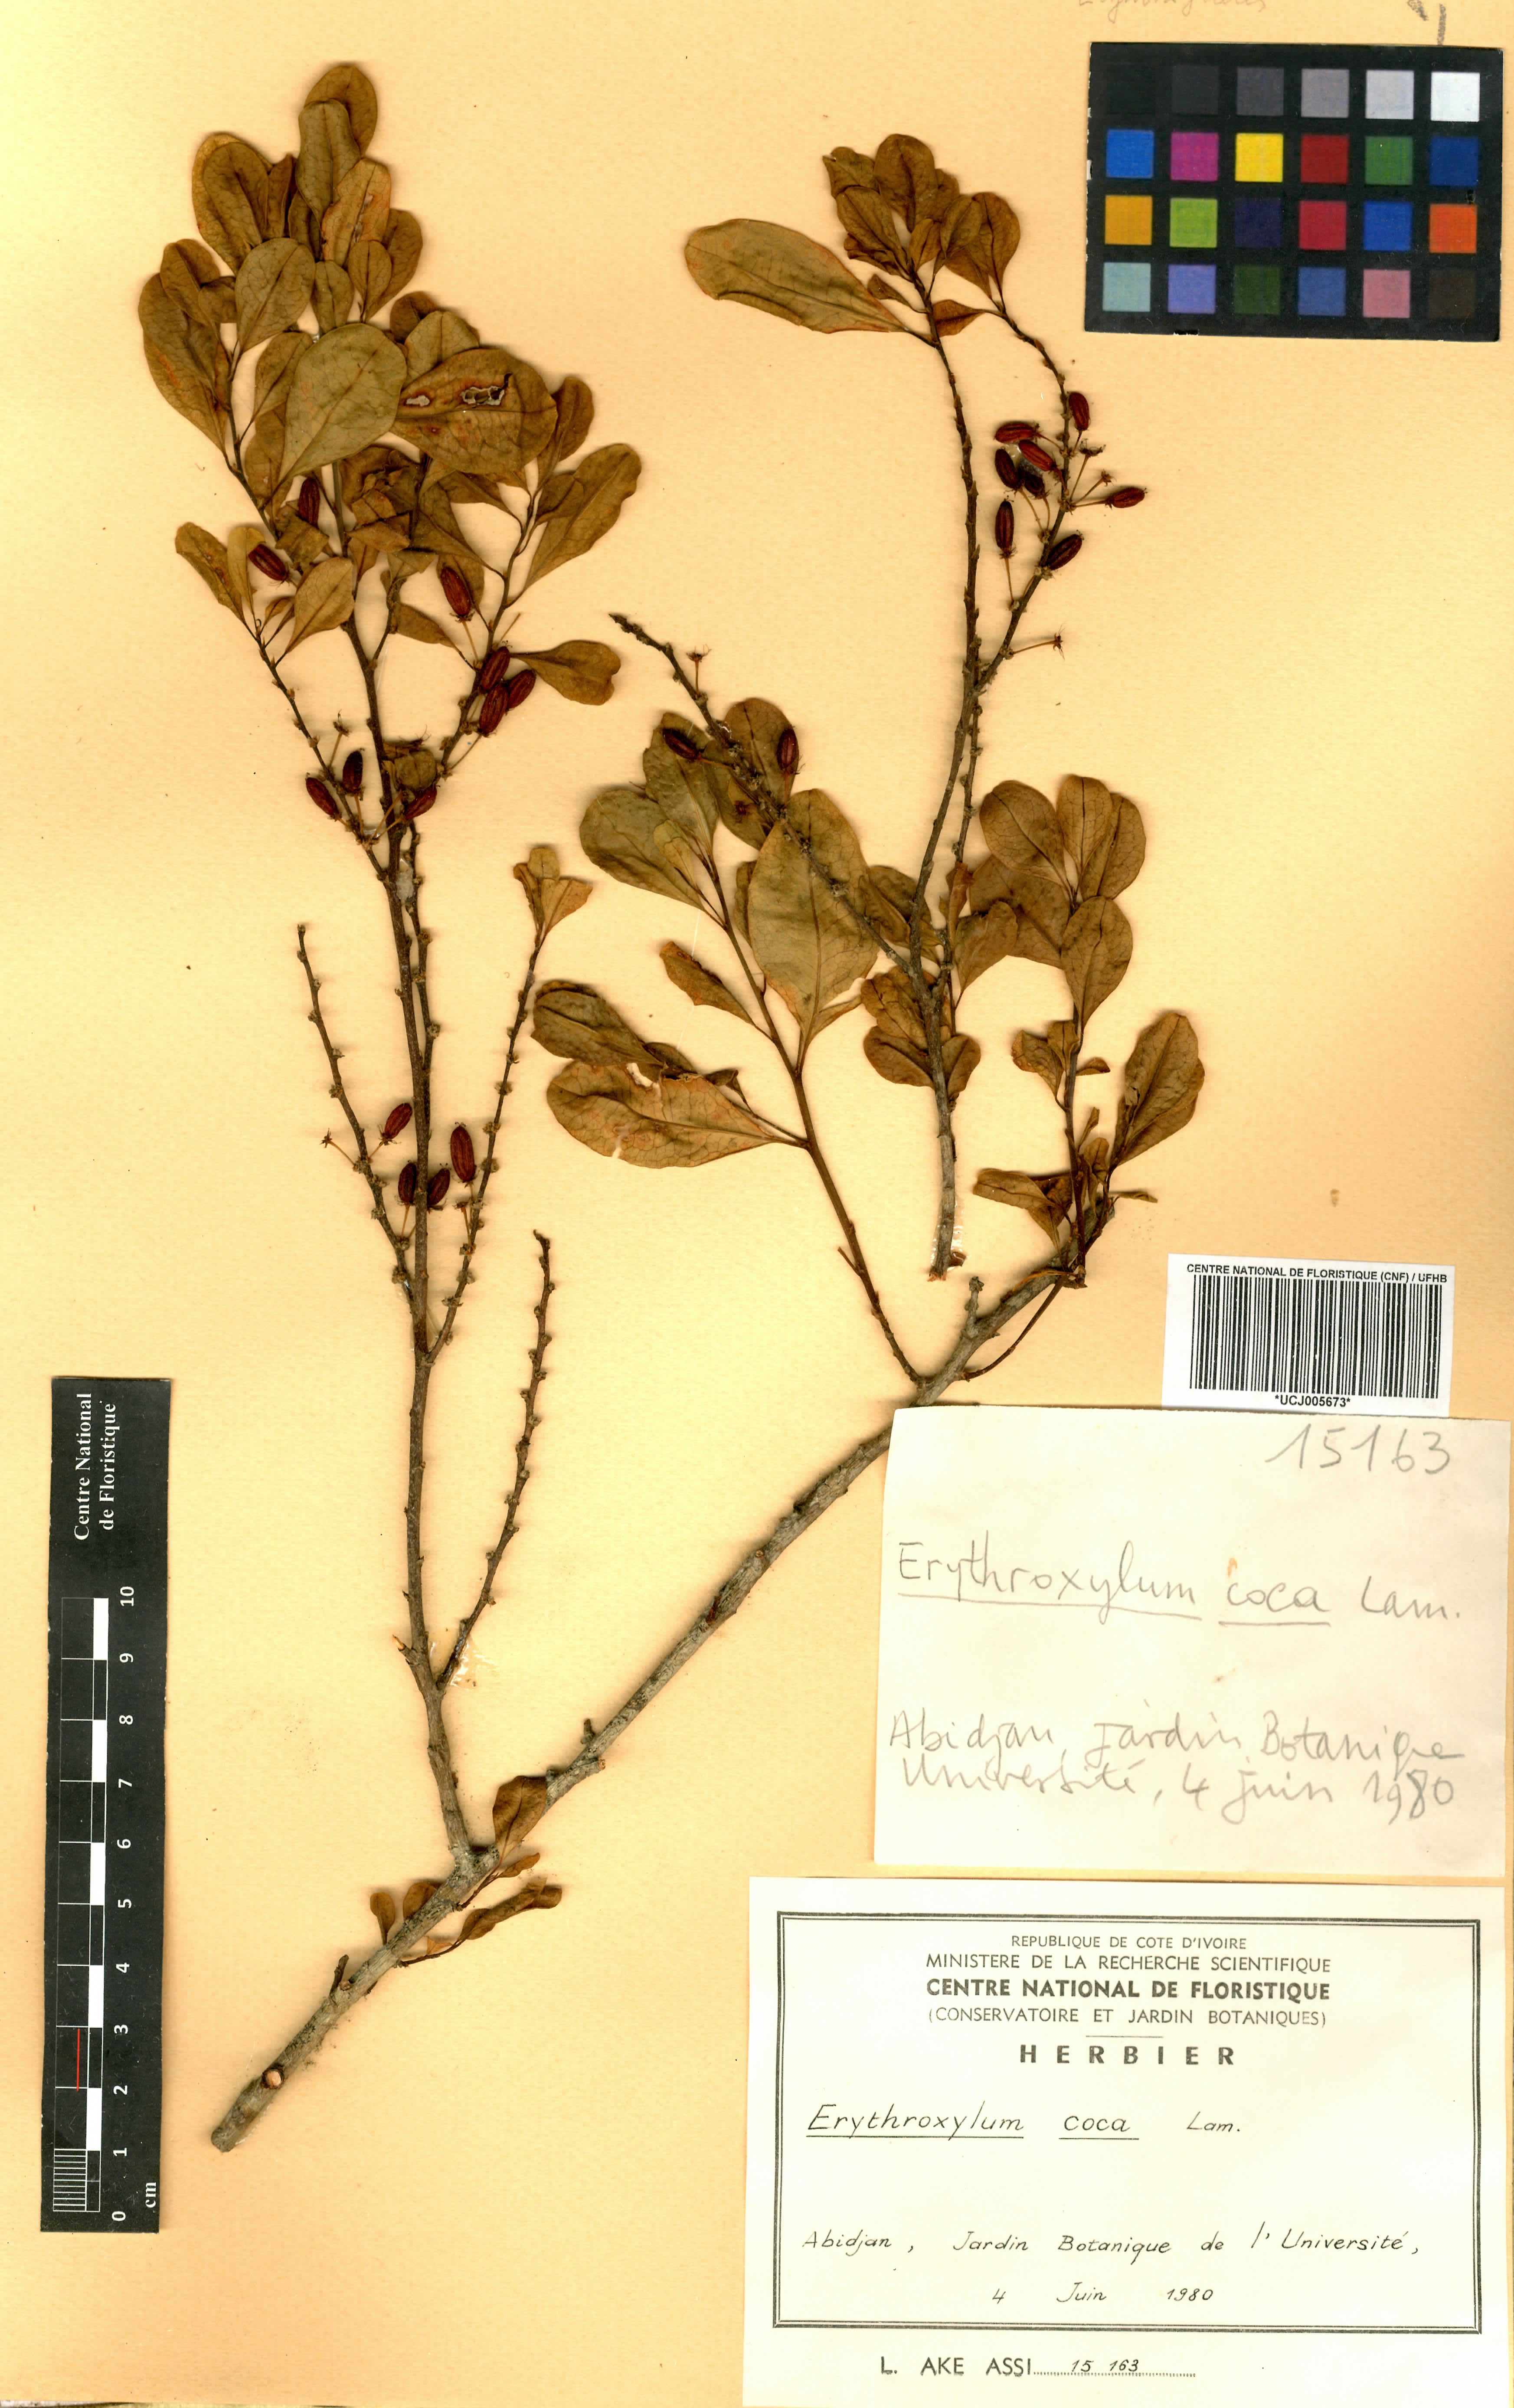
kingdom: Plantae
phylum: Tracheophyta
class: Magnoliopsida
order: Malpighiales
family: Erythroxylaceae
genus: Erythroxylum
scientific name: Erythroxylum coca
